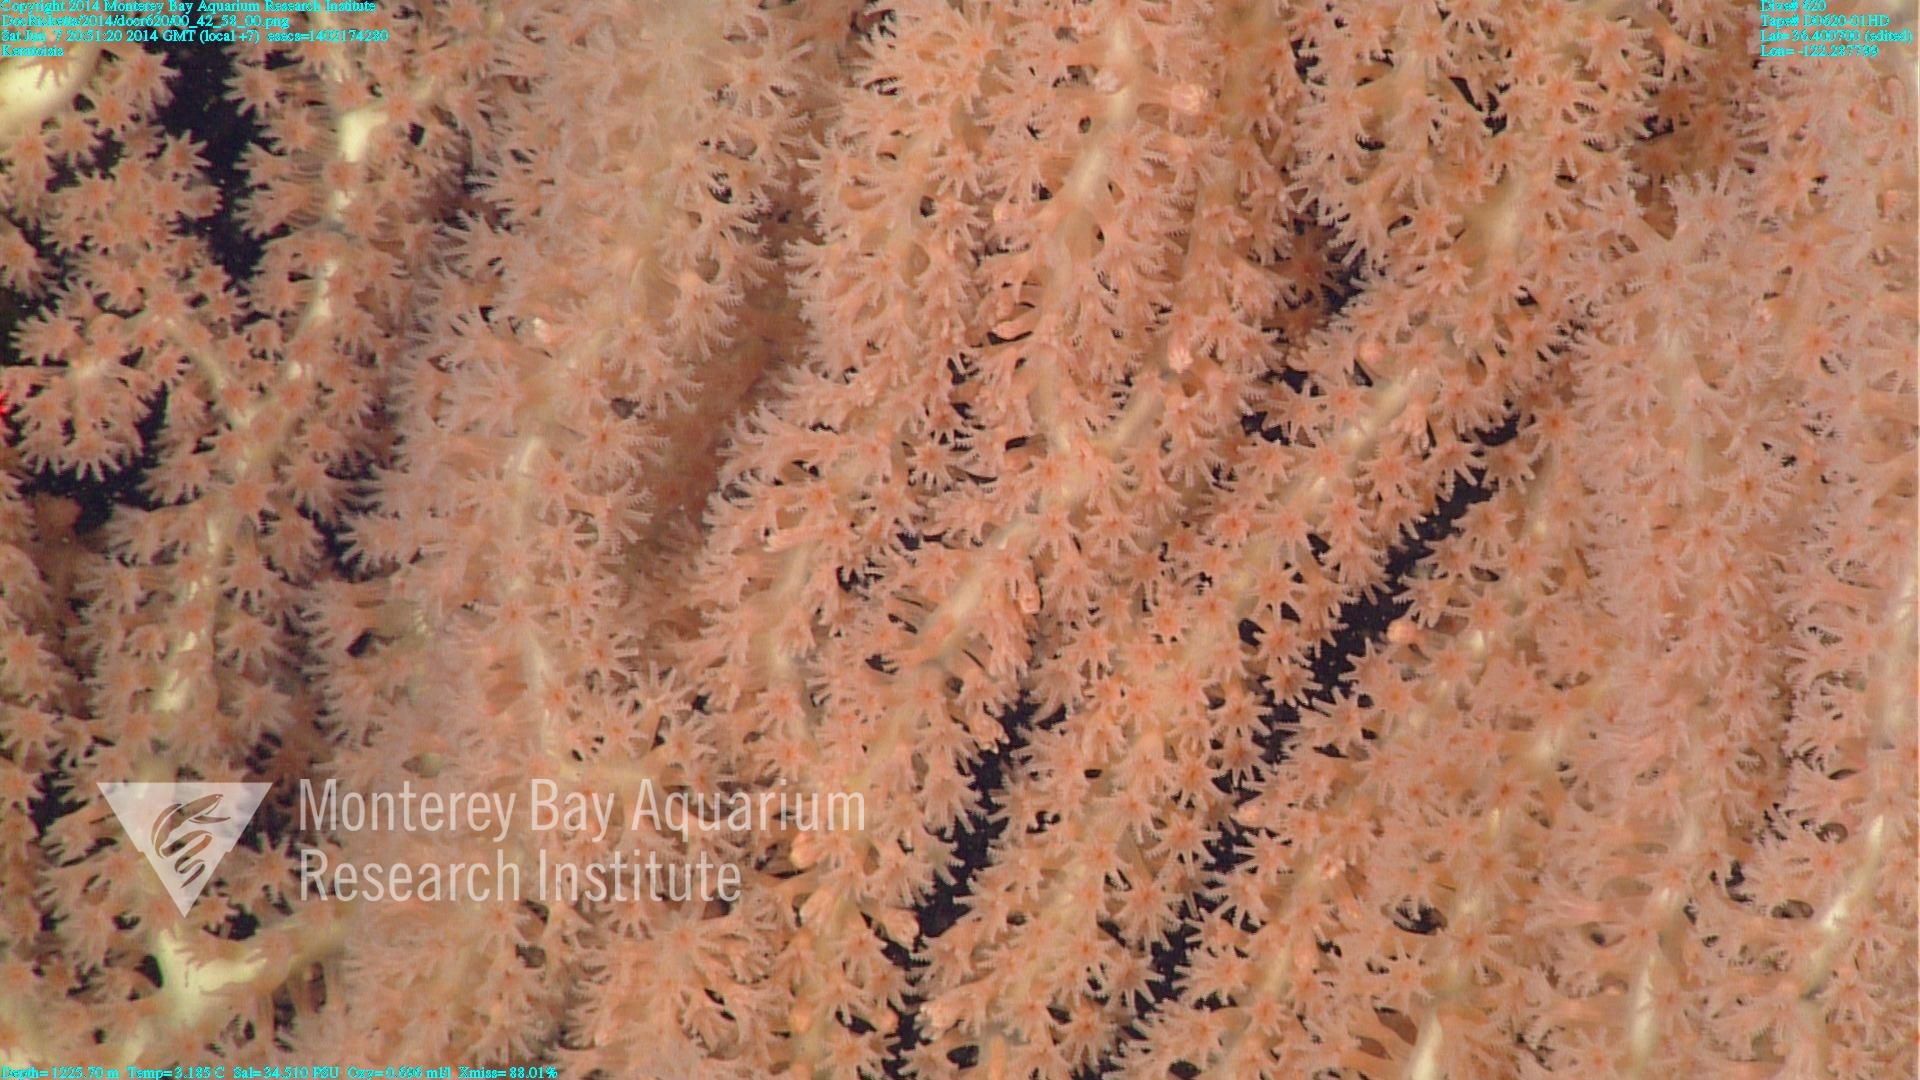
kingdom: Animalia
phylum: Cnidaria
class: Anthozoa
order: Scleralcyonacea
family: Keratoisididae
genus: Keratoisis
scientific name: Keratoisis
